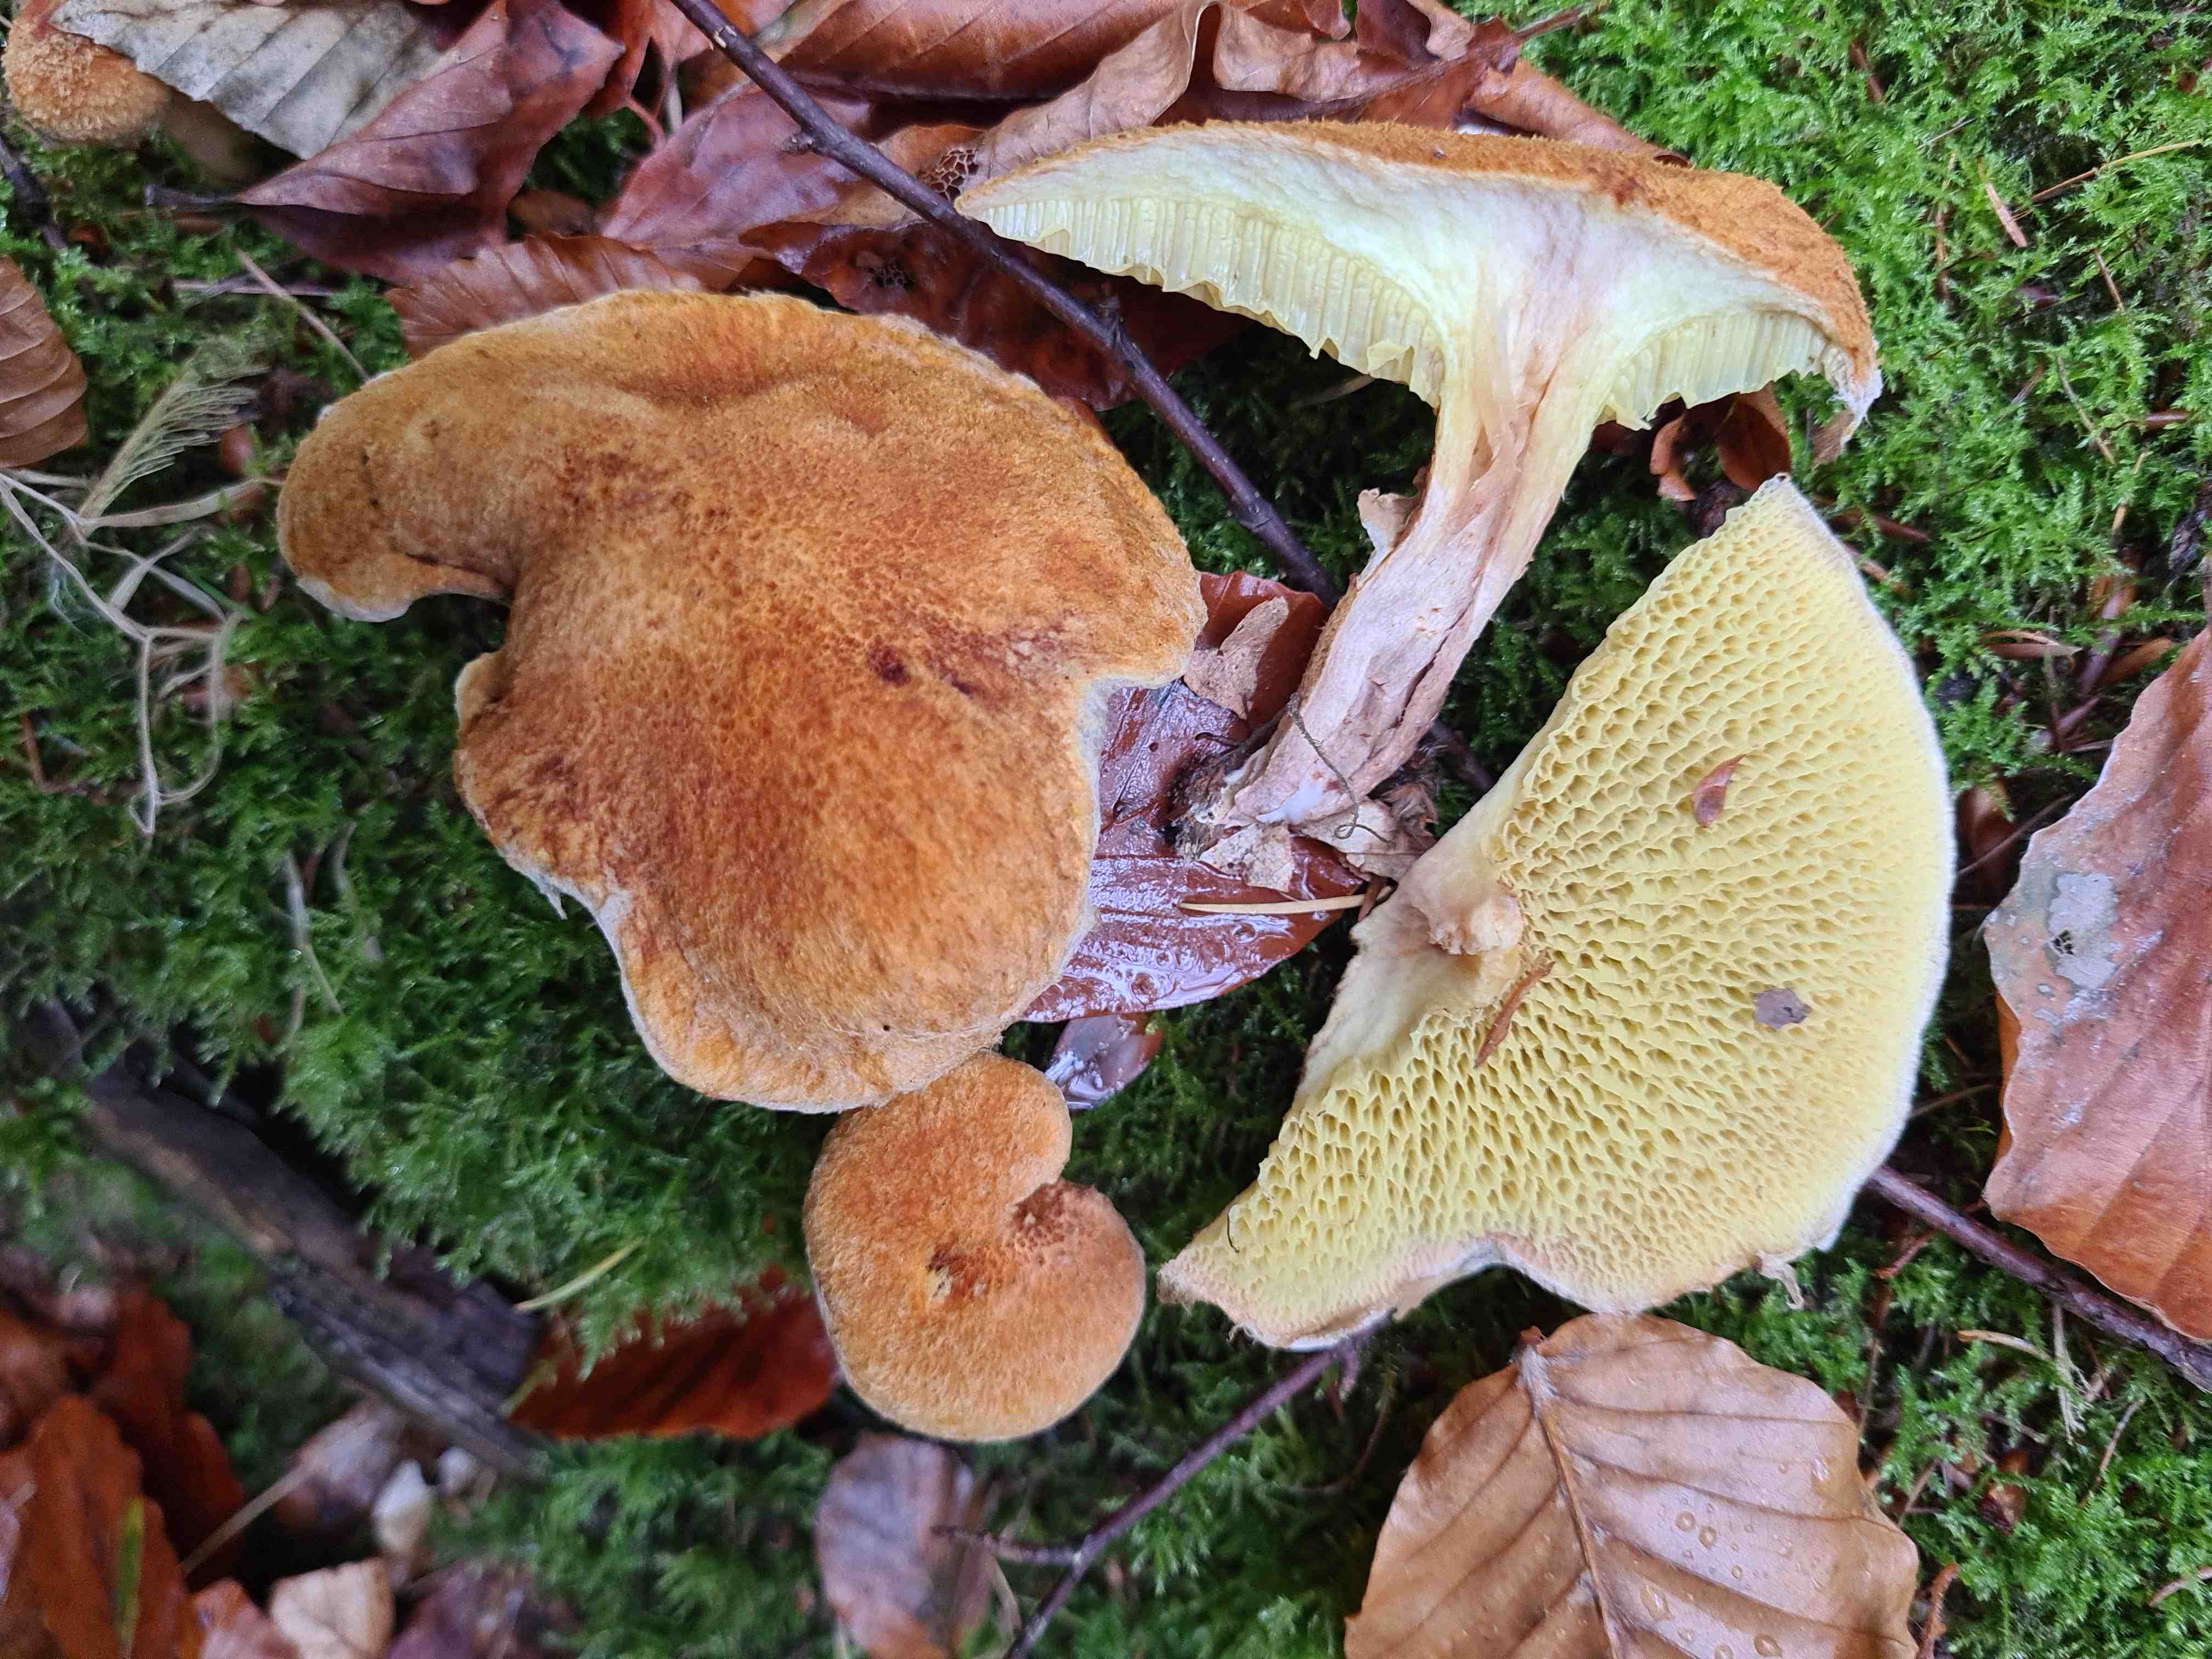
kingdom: Fungi
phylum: Basidiomycota
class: Agaricomycetes
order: Boletales
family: Suillaceae
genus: Suillus
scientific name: Suillus cavipes
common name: hulstokket slimrørhat
